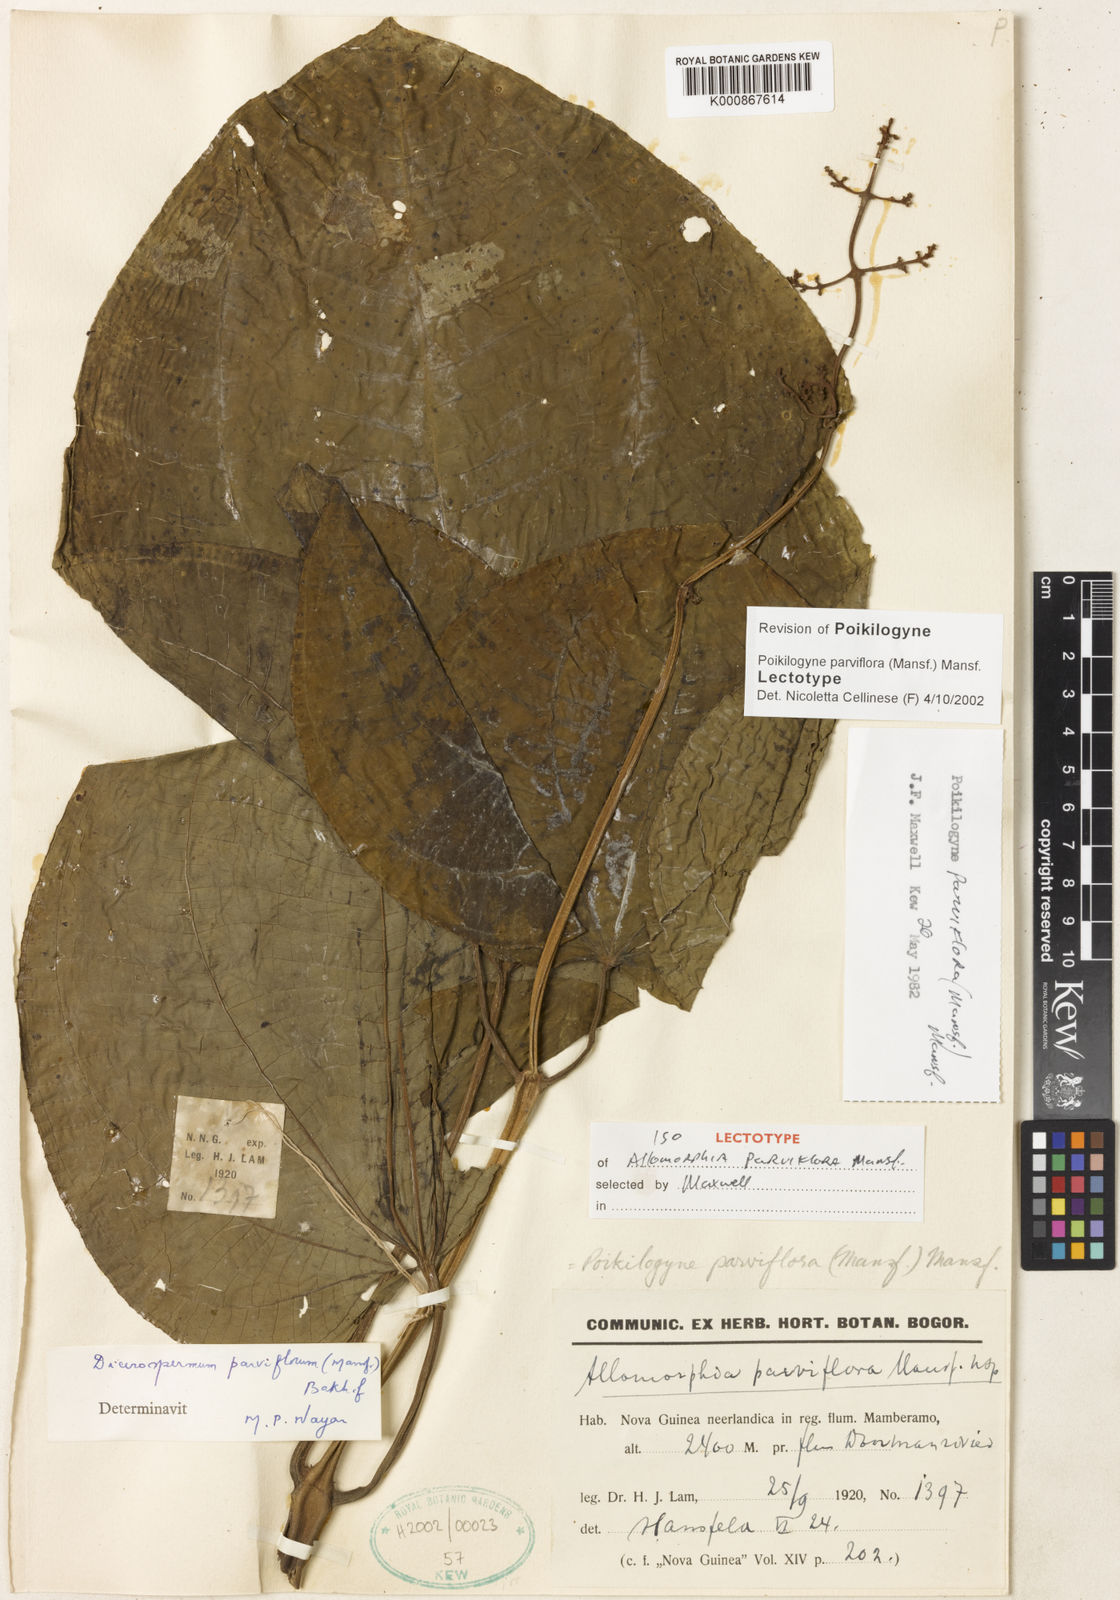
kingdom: Plantae
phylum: Tracheophyta
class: Magnoliopsida
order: Myrtales
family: Melastomataceae
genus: Poikilogyne
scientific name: Poikilogyne parviflora
